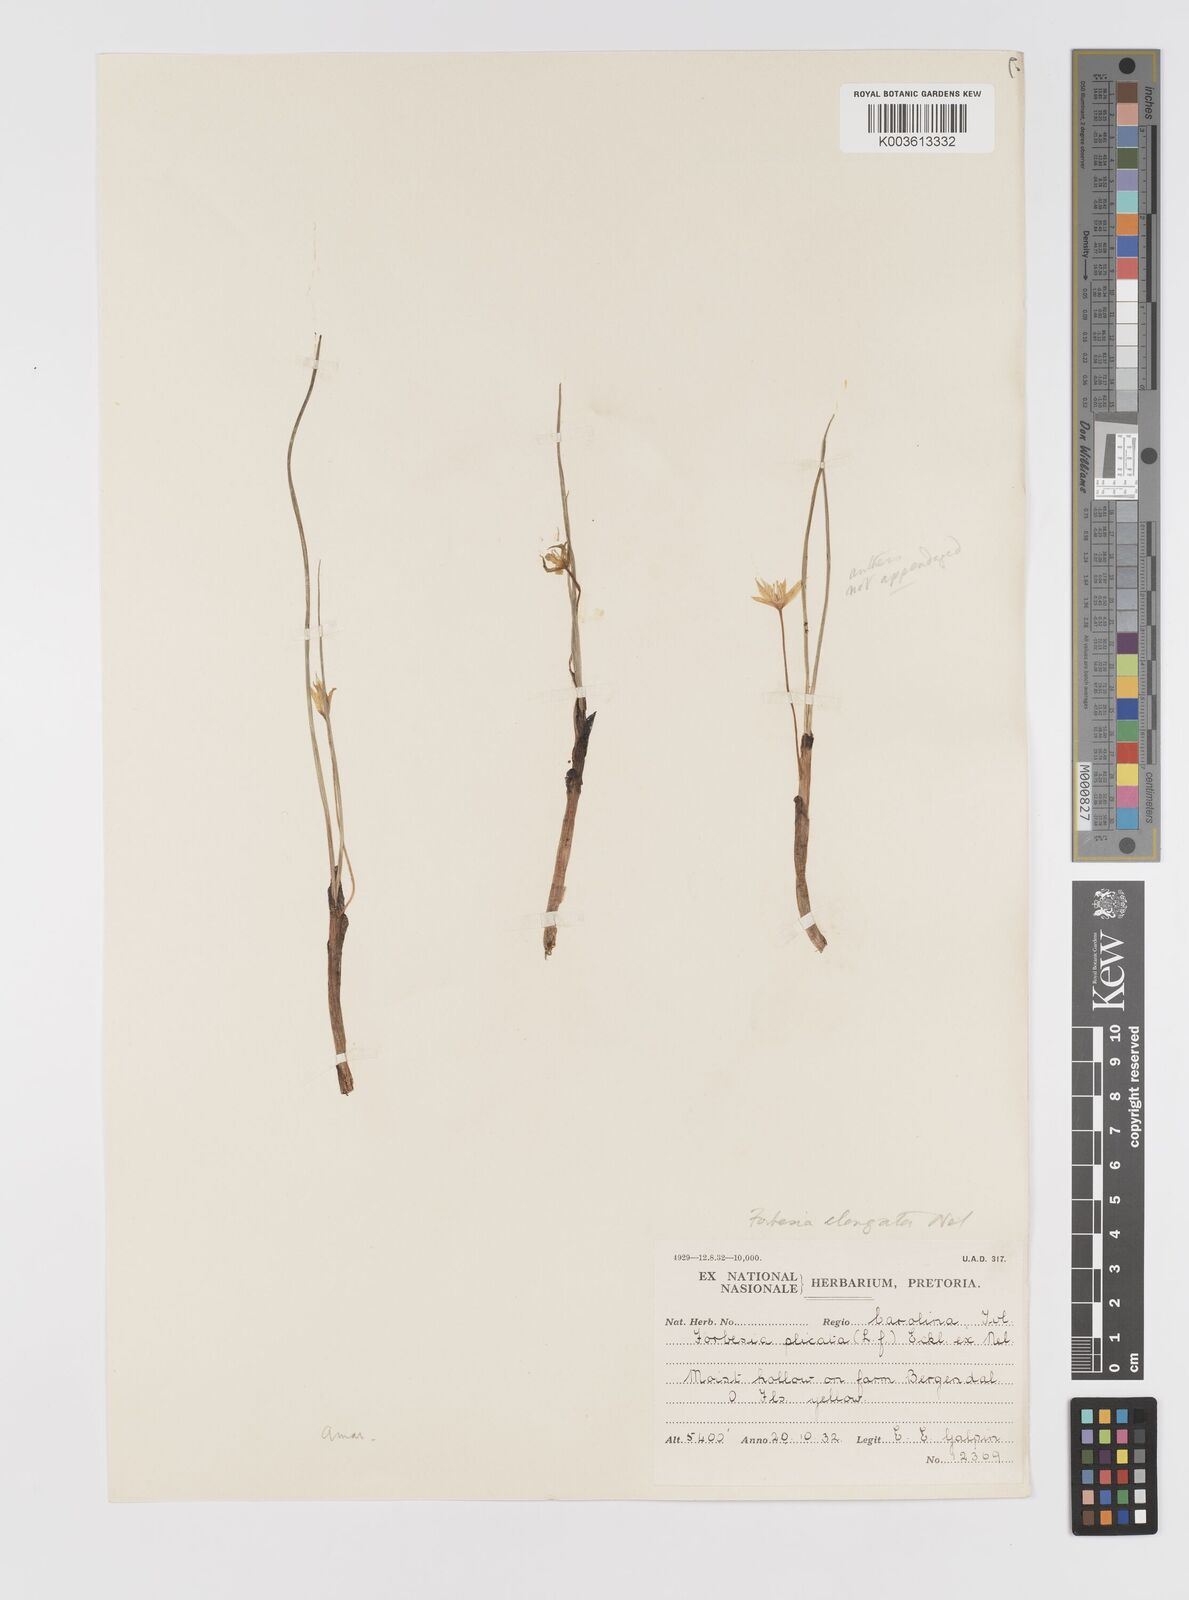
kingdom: Plantae
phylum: Tracheophyta
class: Liliopsida
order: Asparagales
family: Hypoxidaceae
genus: Empodium
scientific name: Empodium elongatum
